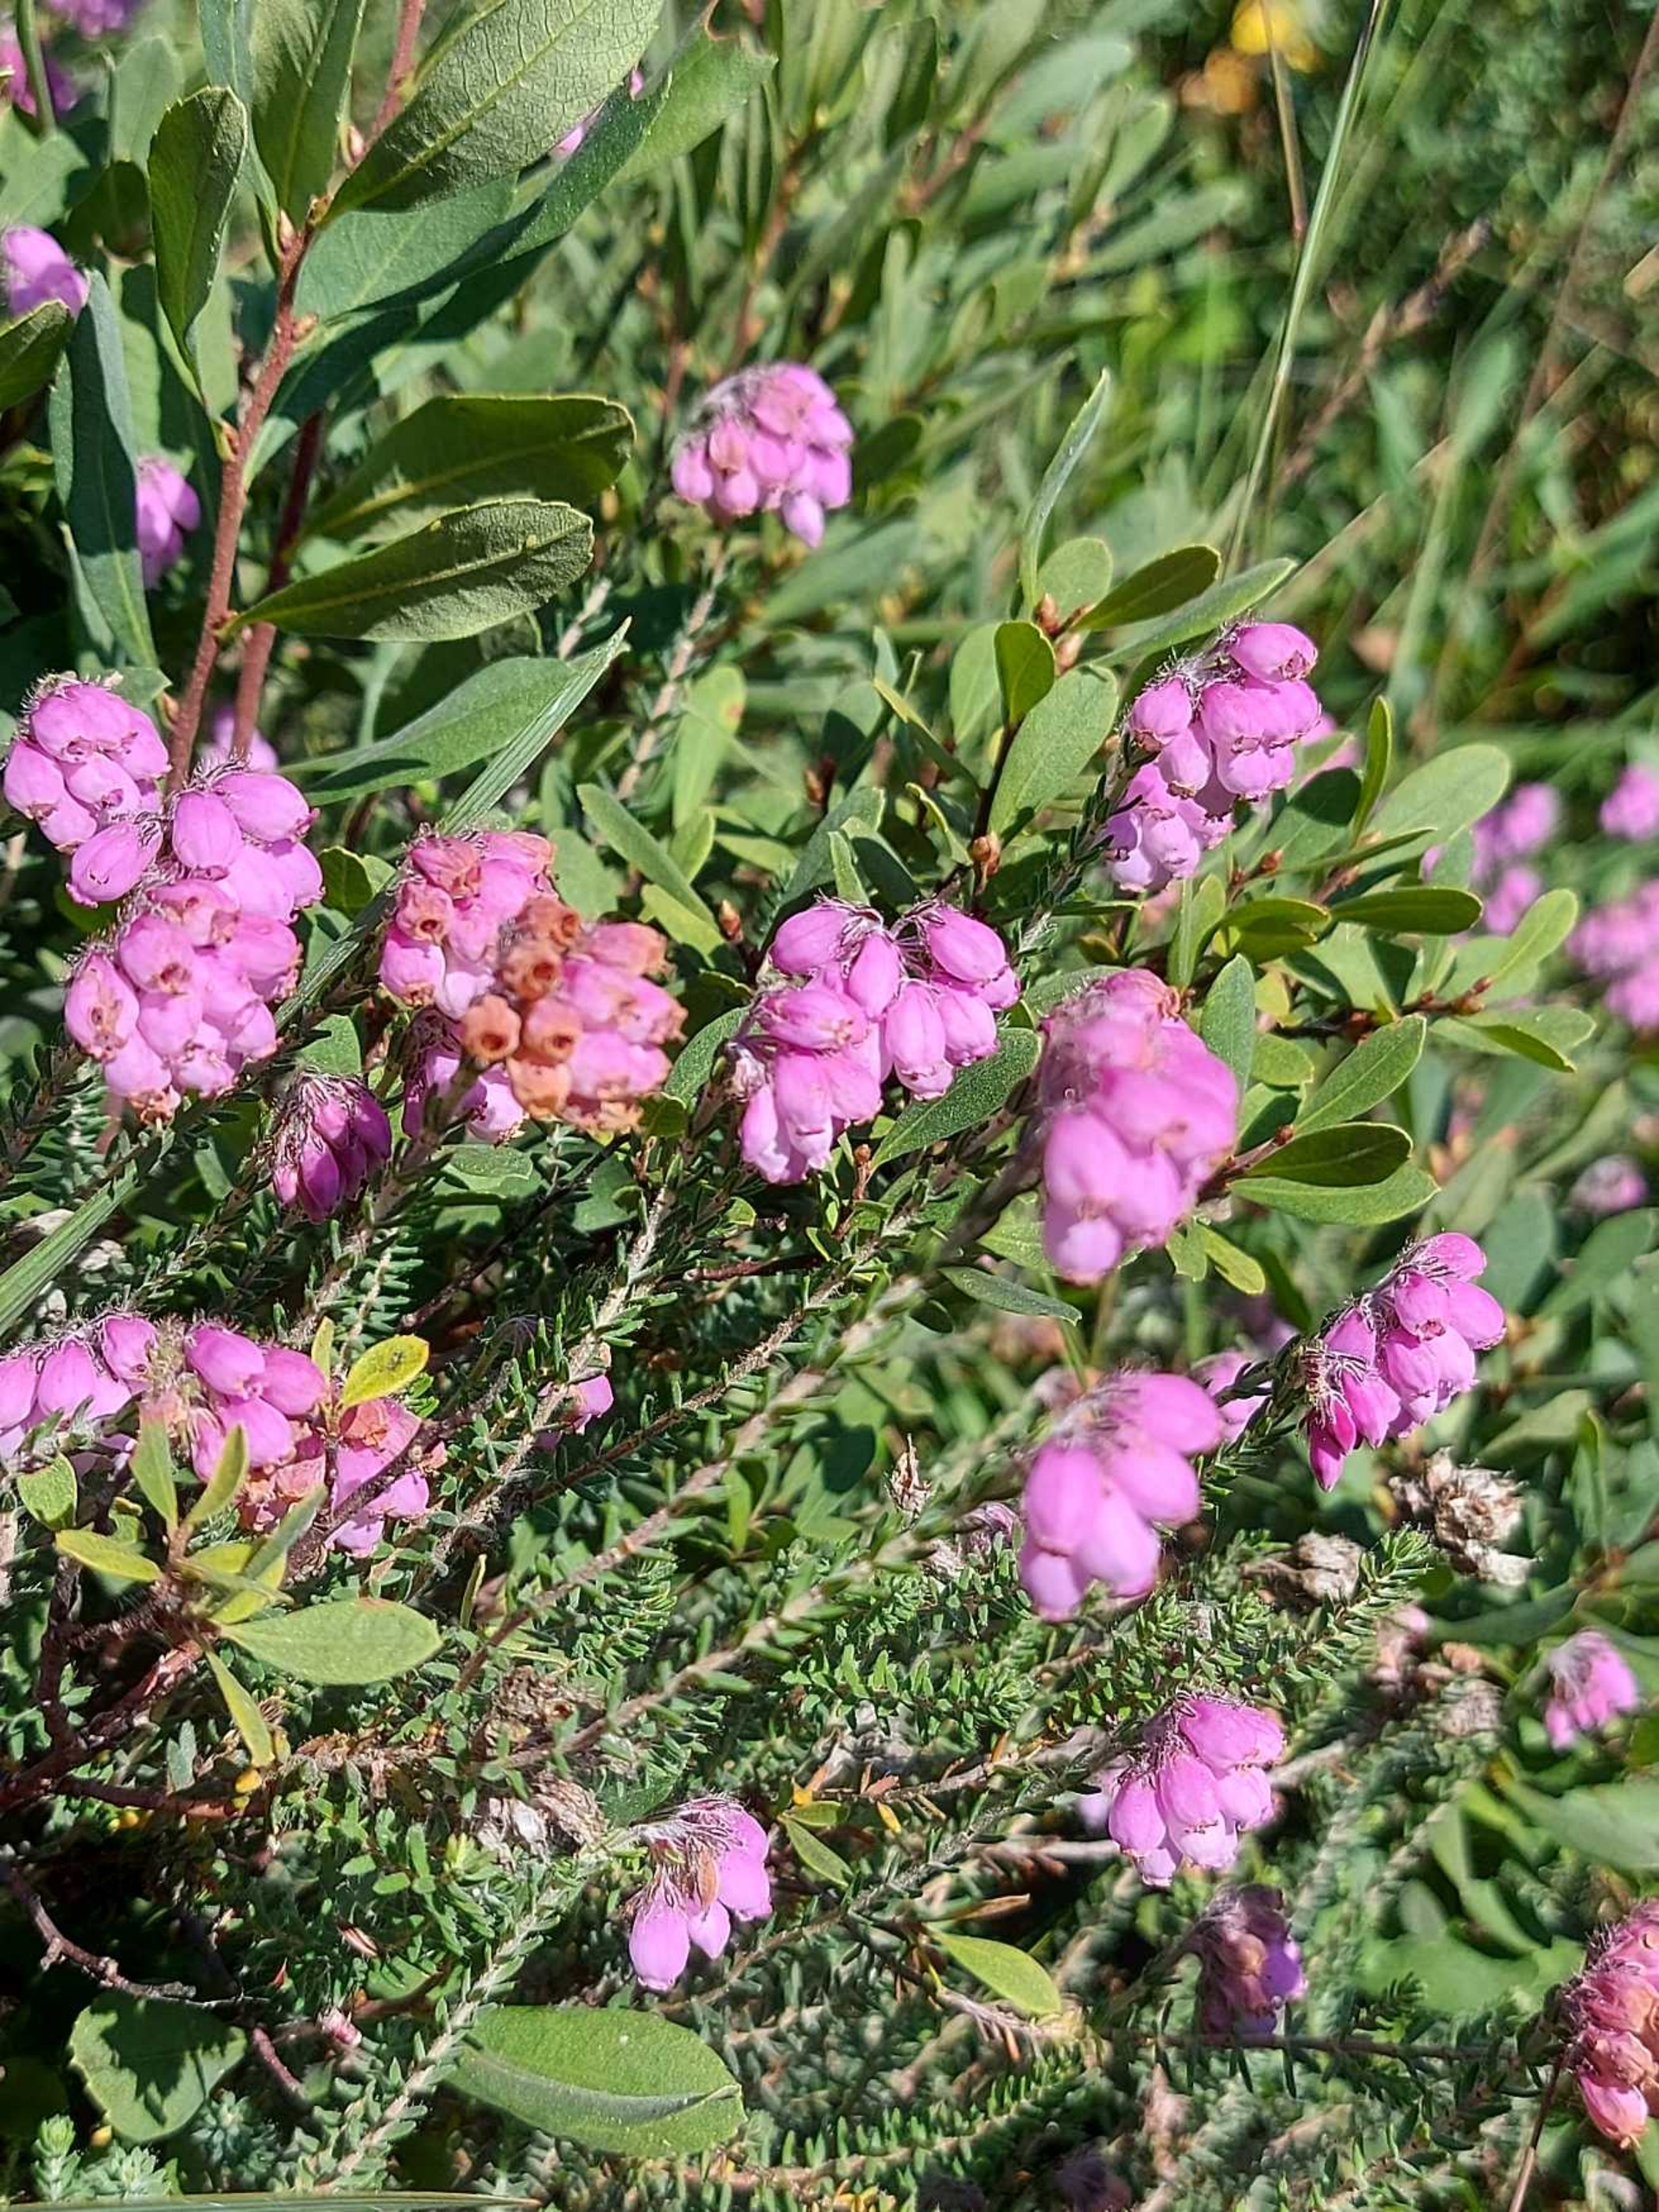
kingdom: Plantae
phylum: Tracheophyta
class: Magnoliopsida
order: Ericales
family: Ericaceae
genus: Erica
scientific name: Erica tetralix
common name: Klokkelyng
